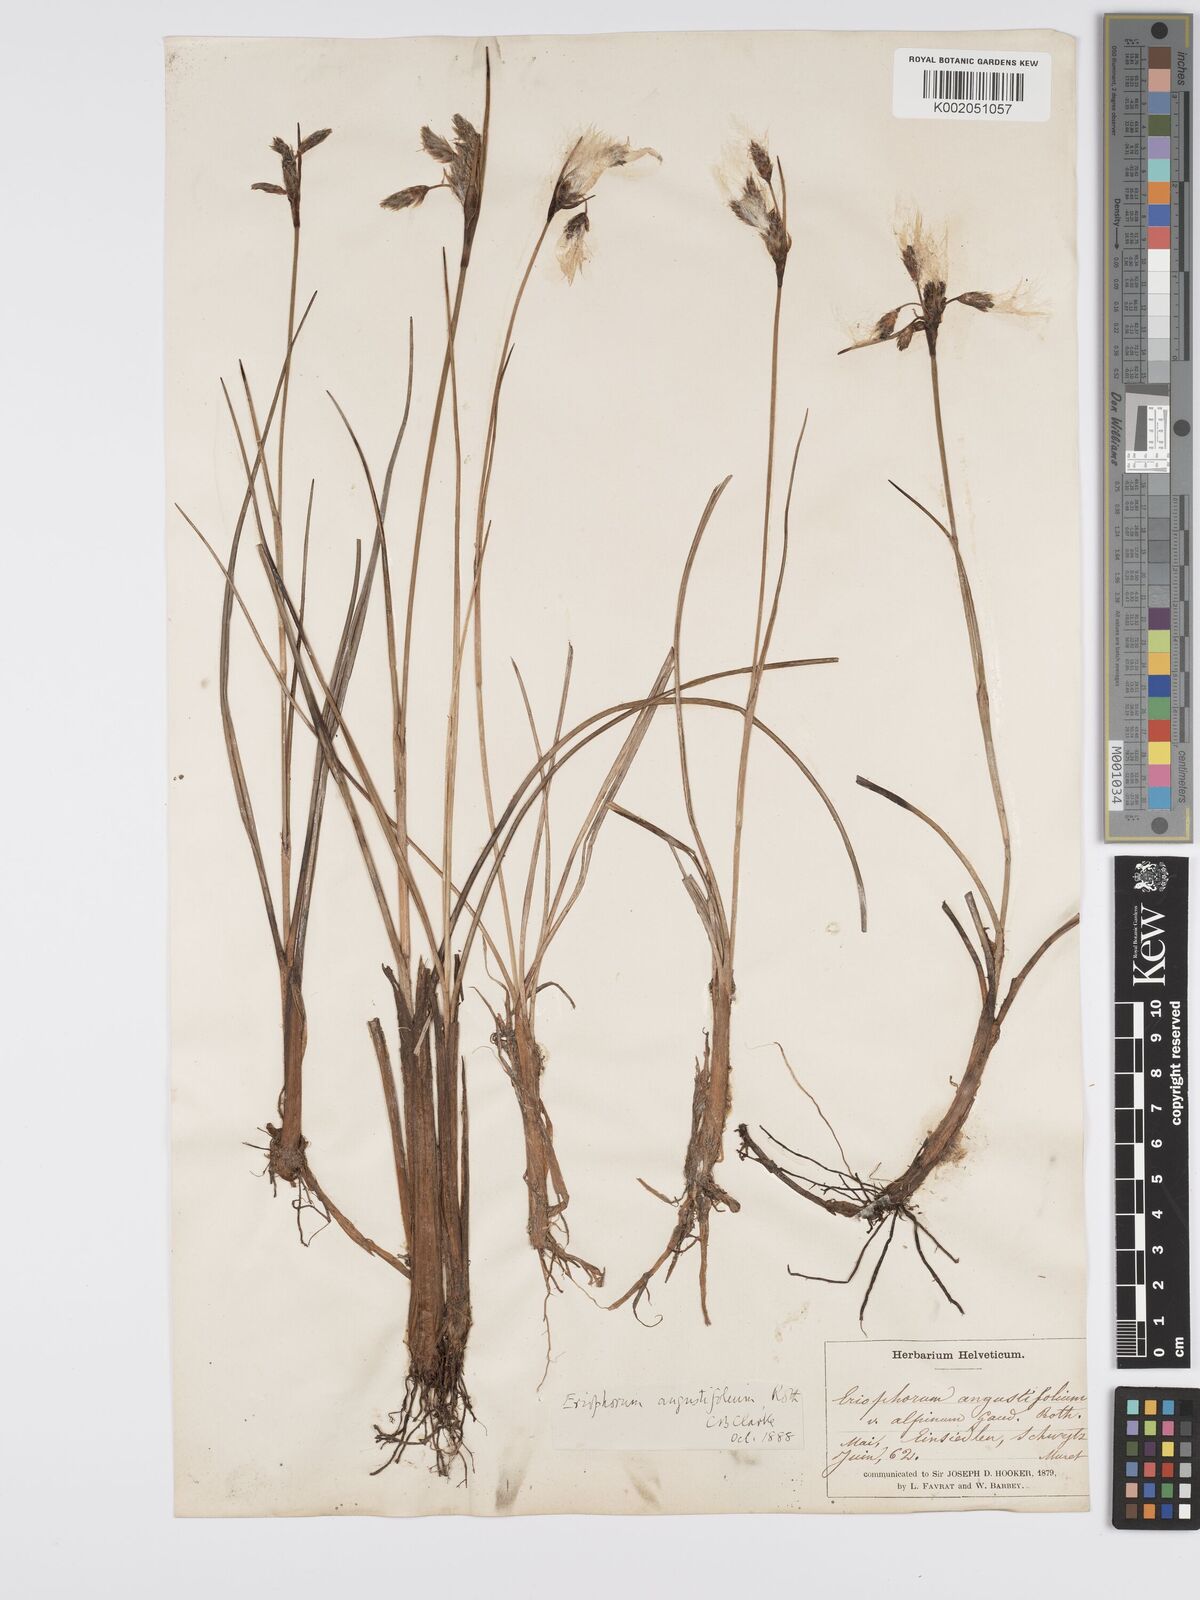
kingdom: Plantae
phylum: Tracheophyta
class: Liliopsida
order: Poales
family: Cyperaceae
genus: Eriophorum
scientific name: Eriophorum angustifolium
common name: Common cottongrass
